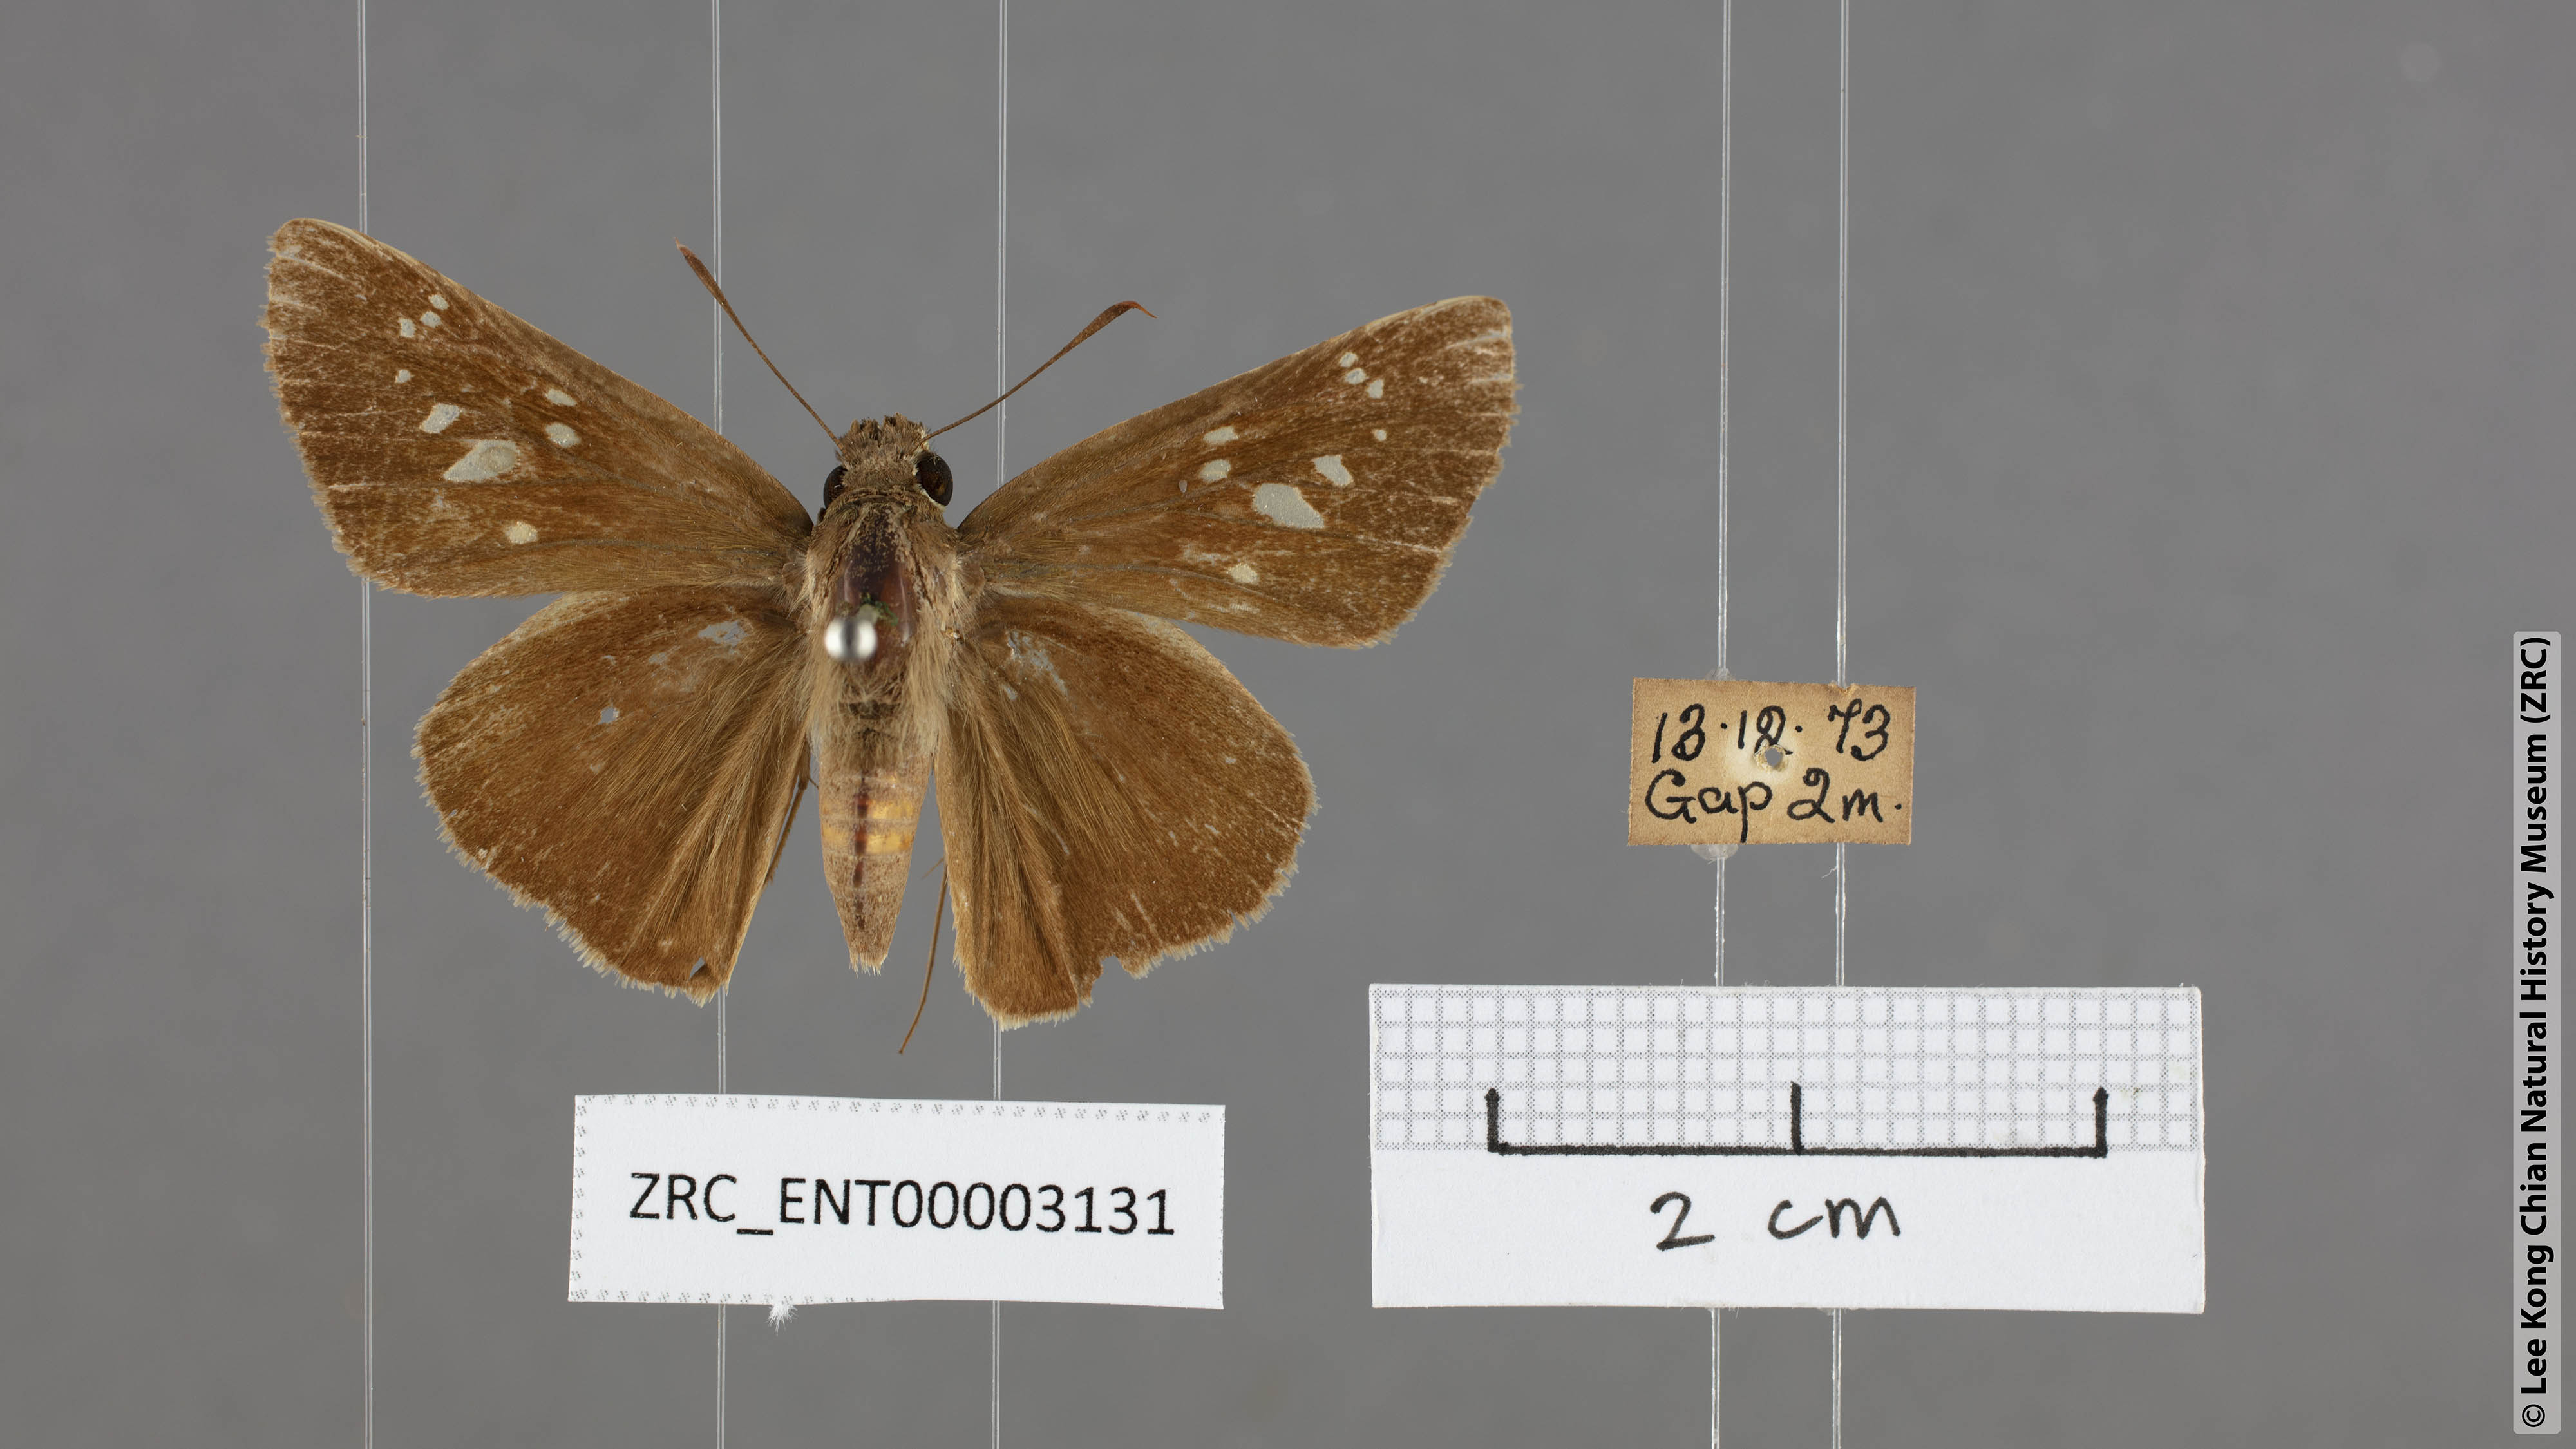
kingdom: Animalia
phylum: Arthropoda
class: Insecta
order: Lepidoptera
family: Hesperiidae
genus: Baoris
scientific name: Baoris farri
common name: Paintbrush swift
